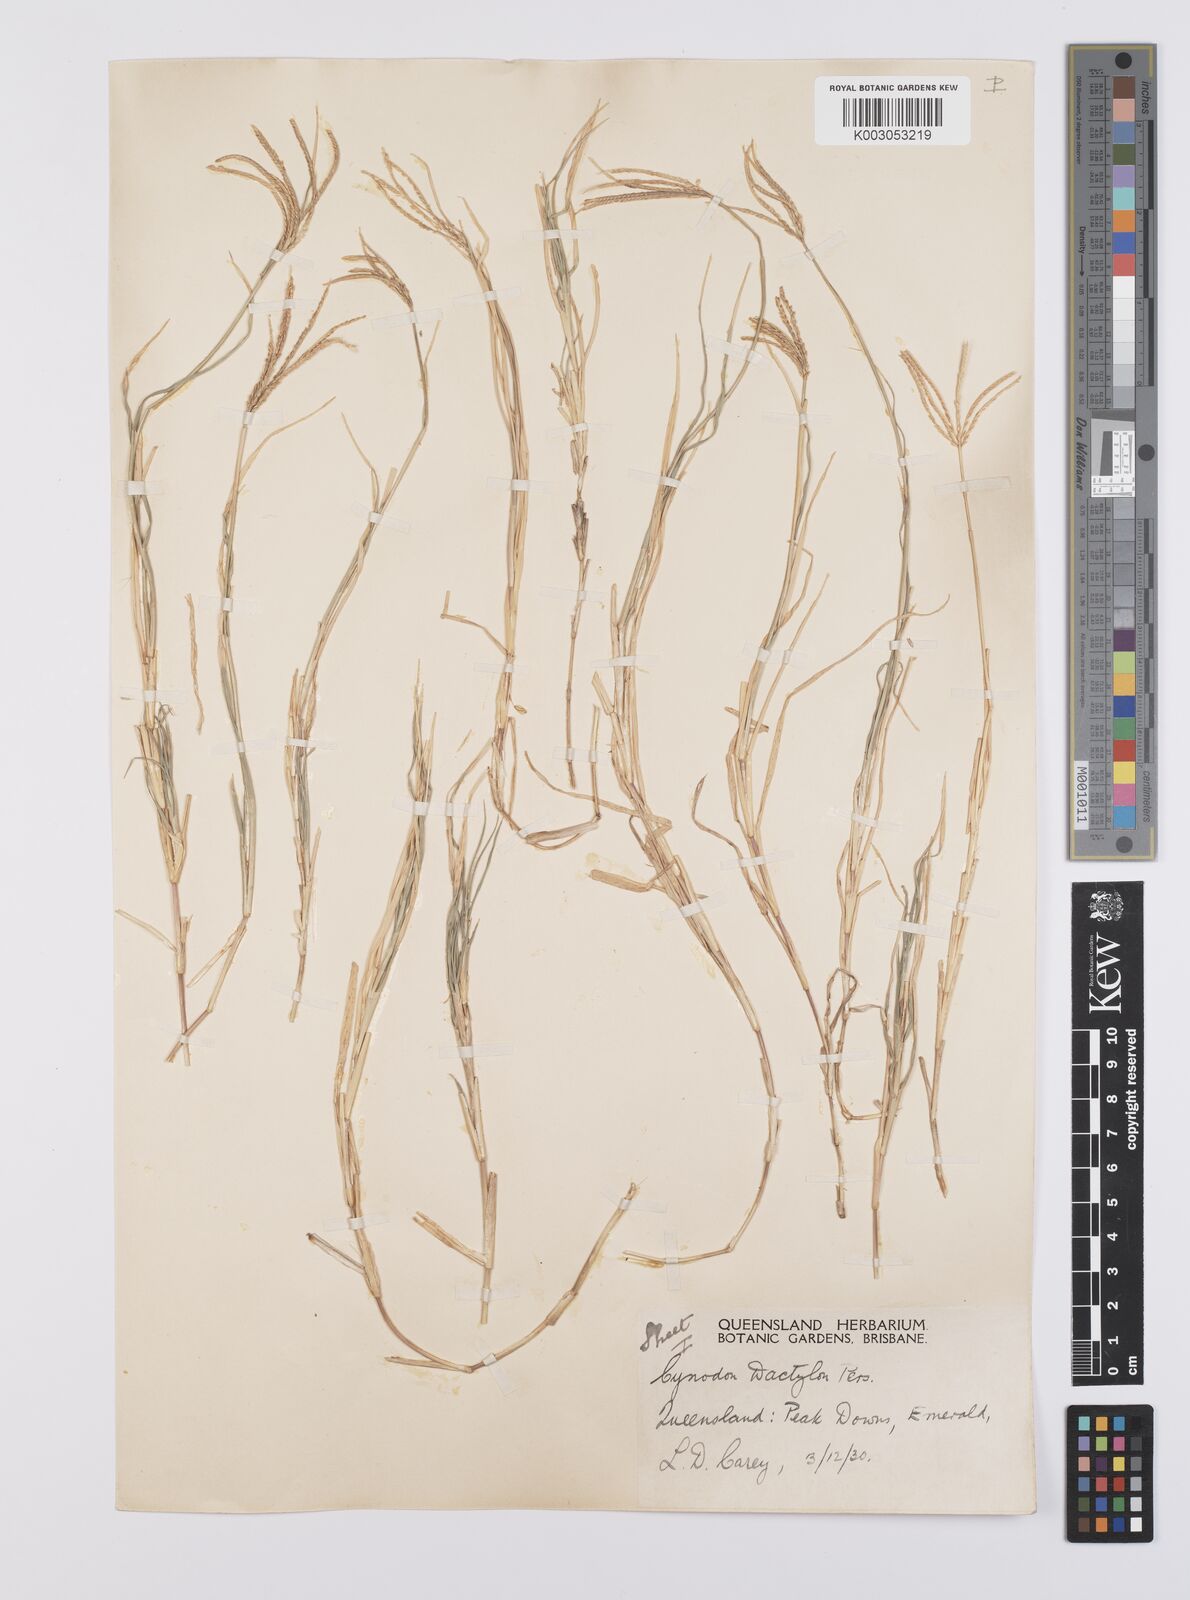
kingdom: Plantae
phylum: Tracheophyta
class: Liliopsida
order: Poales
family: Poaceae
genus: Cynodon
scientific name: Cynodon dactylon
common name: Bermuda grass
